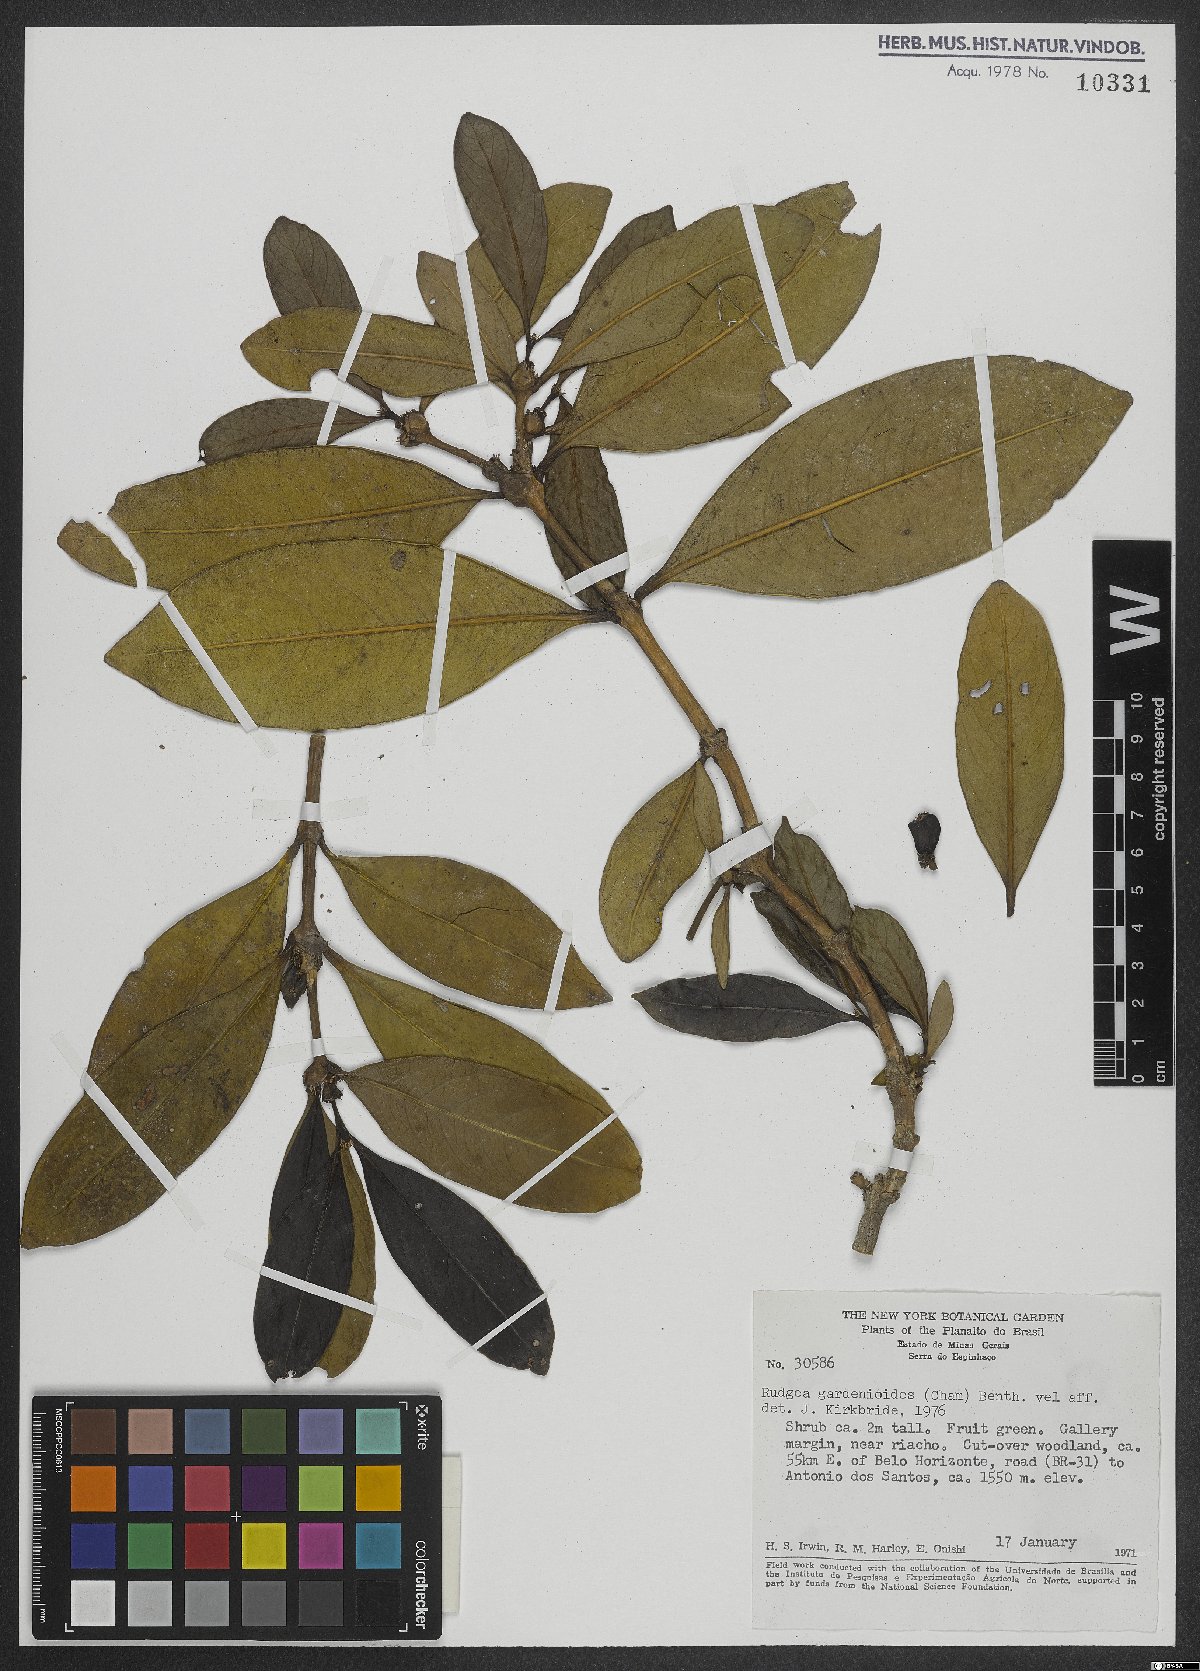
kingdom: Plantae
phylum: Tracheophyta
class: Magnoliopsida
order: Gentianales
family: Rubiaceae
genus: Rudgea
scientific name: Rudgea gardenioides
